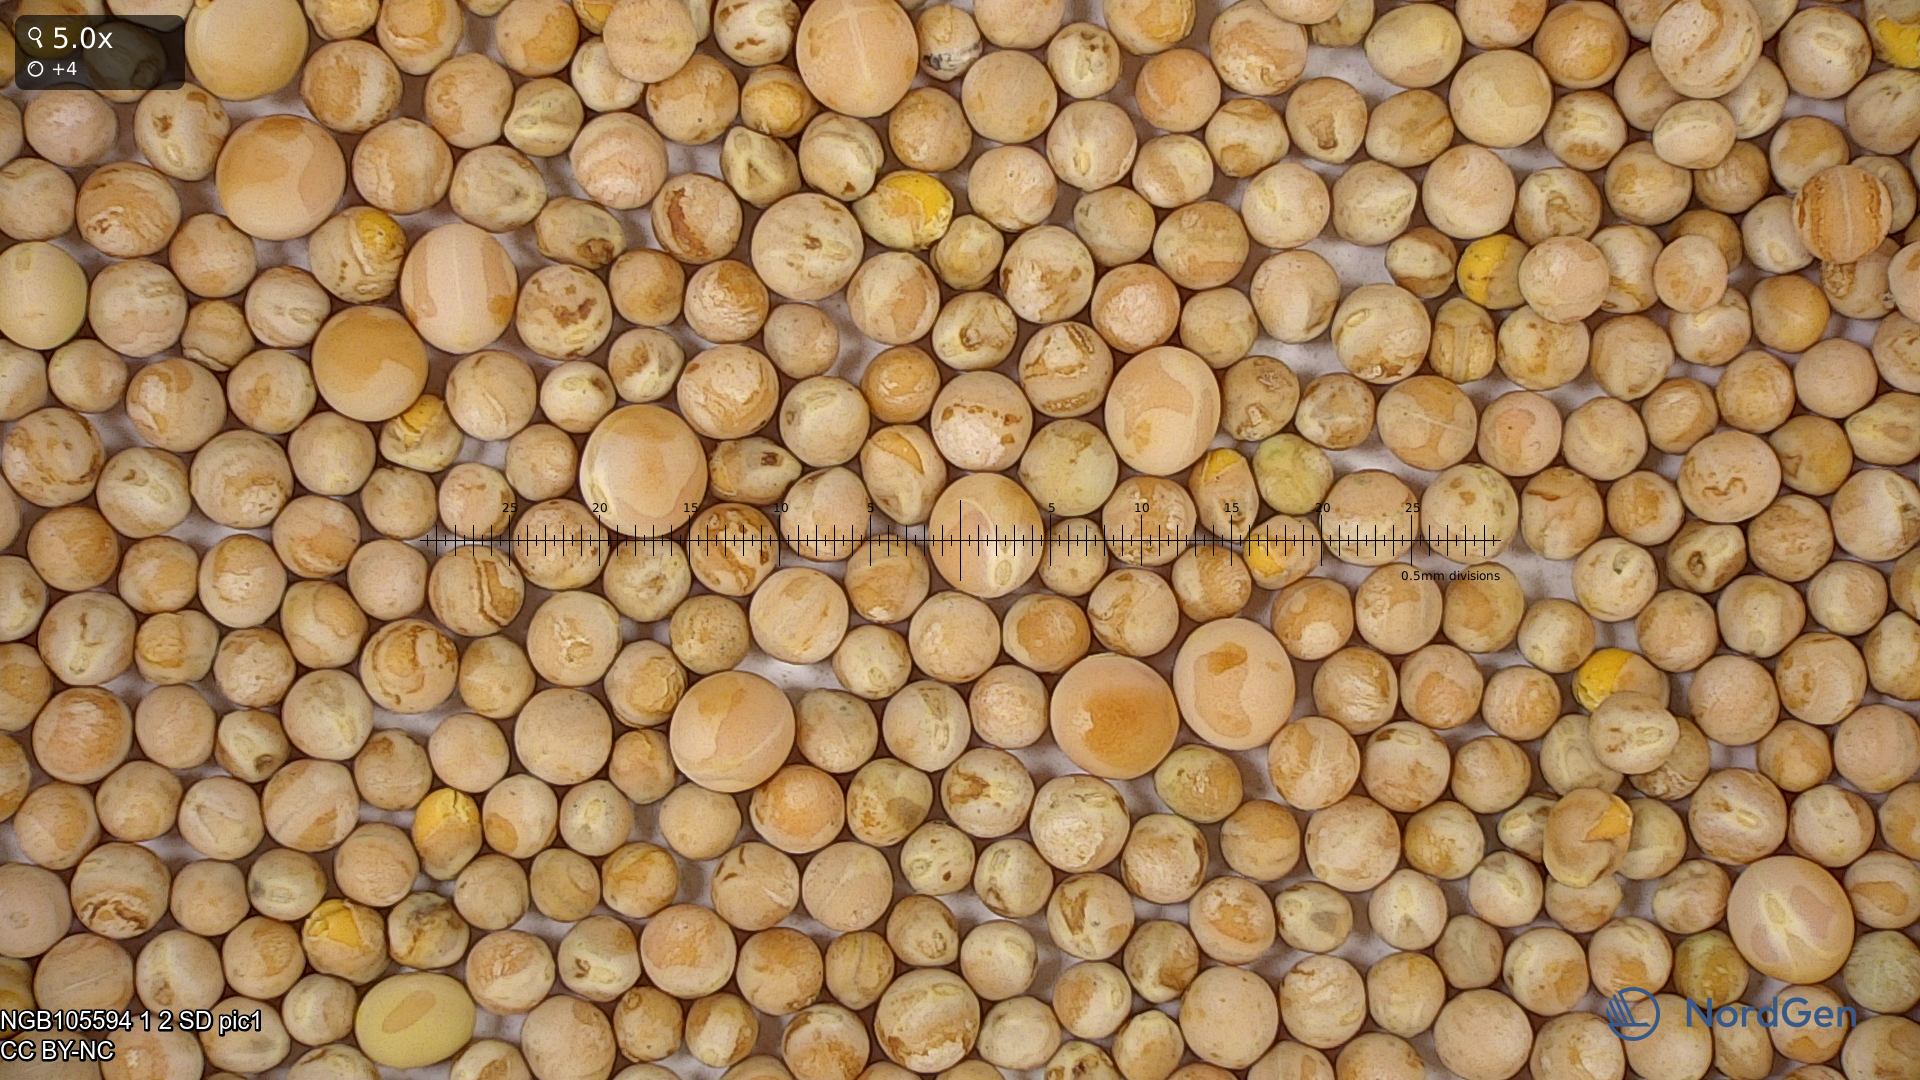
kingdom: Plantae
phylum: Tracheophyta
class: Magnoliopsida
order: Fabales
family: Fabaceae
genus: Lathyrus
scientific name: Lathyrus oleraceus
